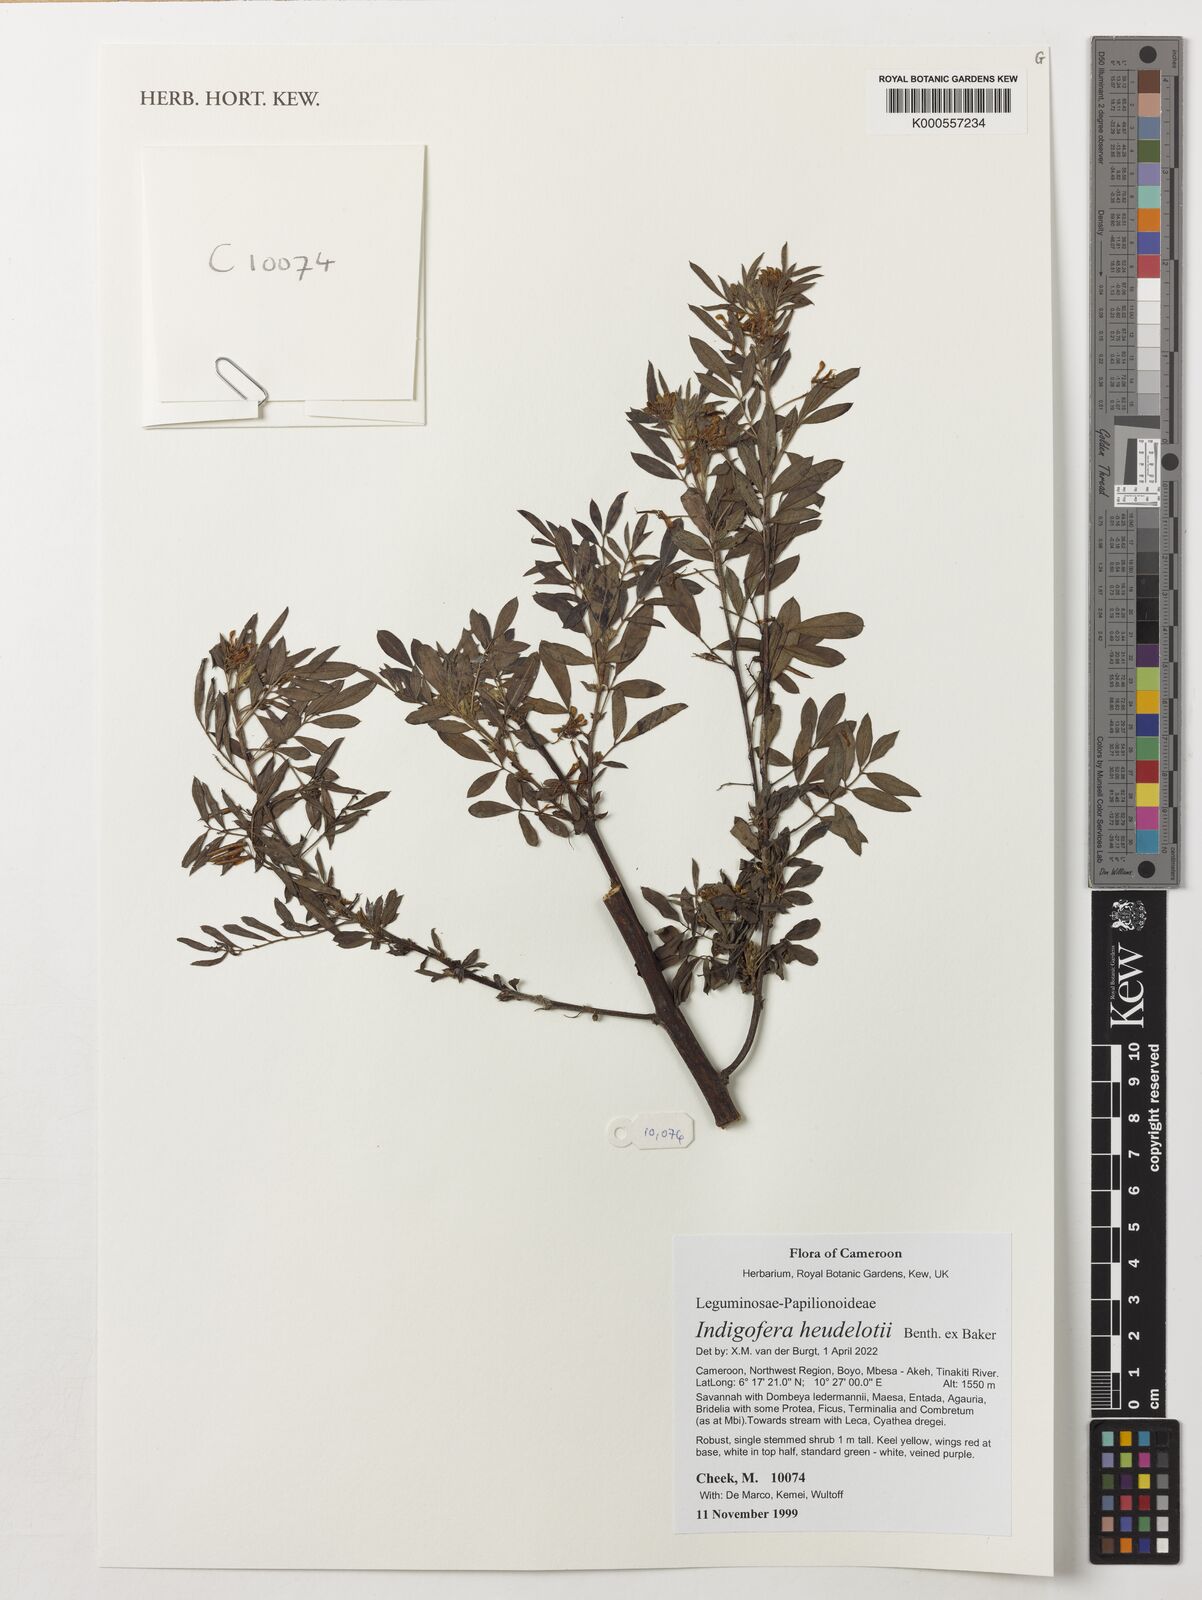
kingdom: Plantae
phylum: Tracheophyta
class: Magnoliopsida
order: Fabales
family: Fabaceae
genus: Indigofera
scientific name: Indigofera heudelotii
